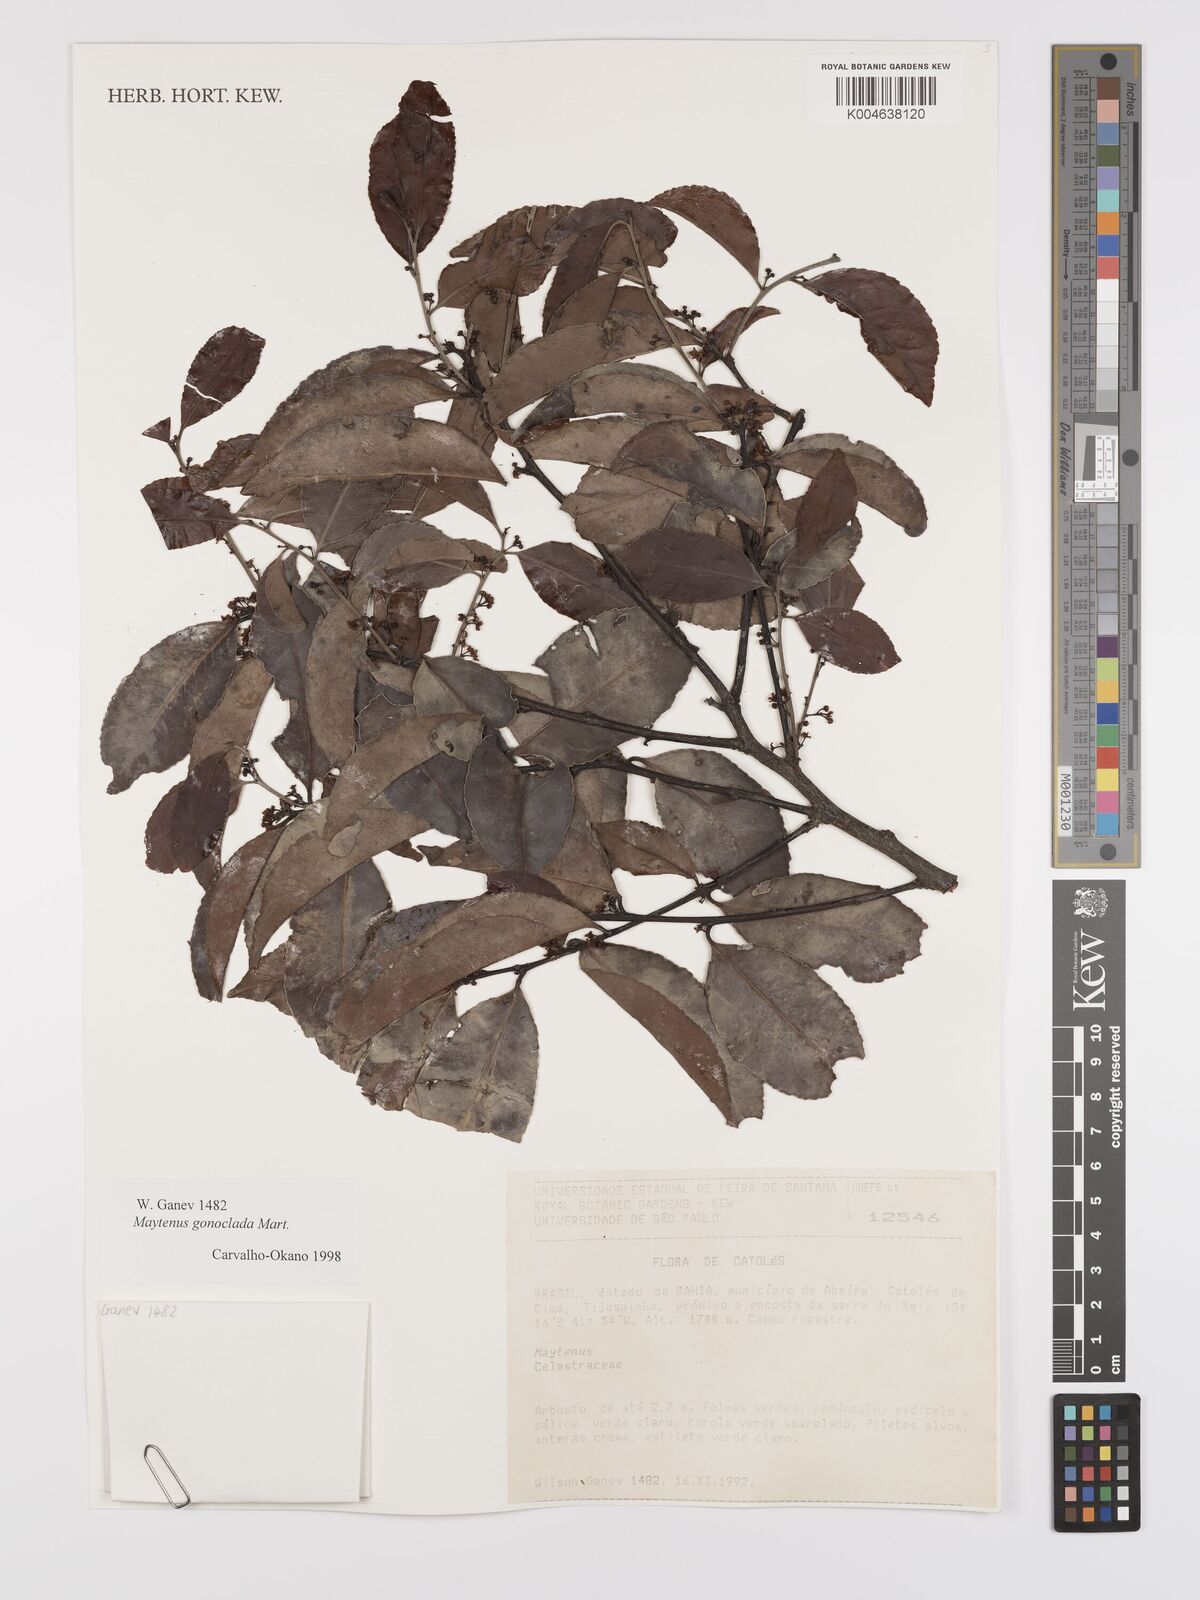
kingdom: Plantae
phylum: Tracheophyta
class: Magnoliopsida
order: Celastrales
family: Celastraceae
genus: Monteverdia
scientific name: Monteverdia gonoclada
